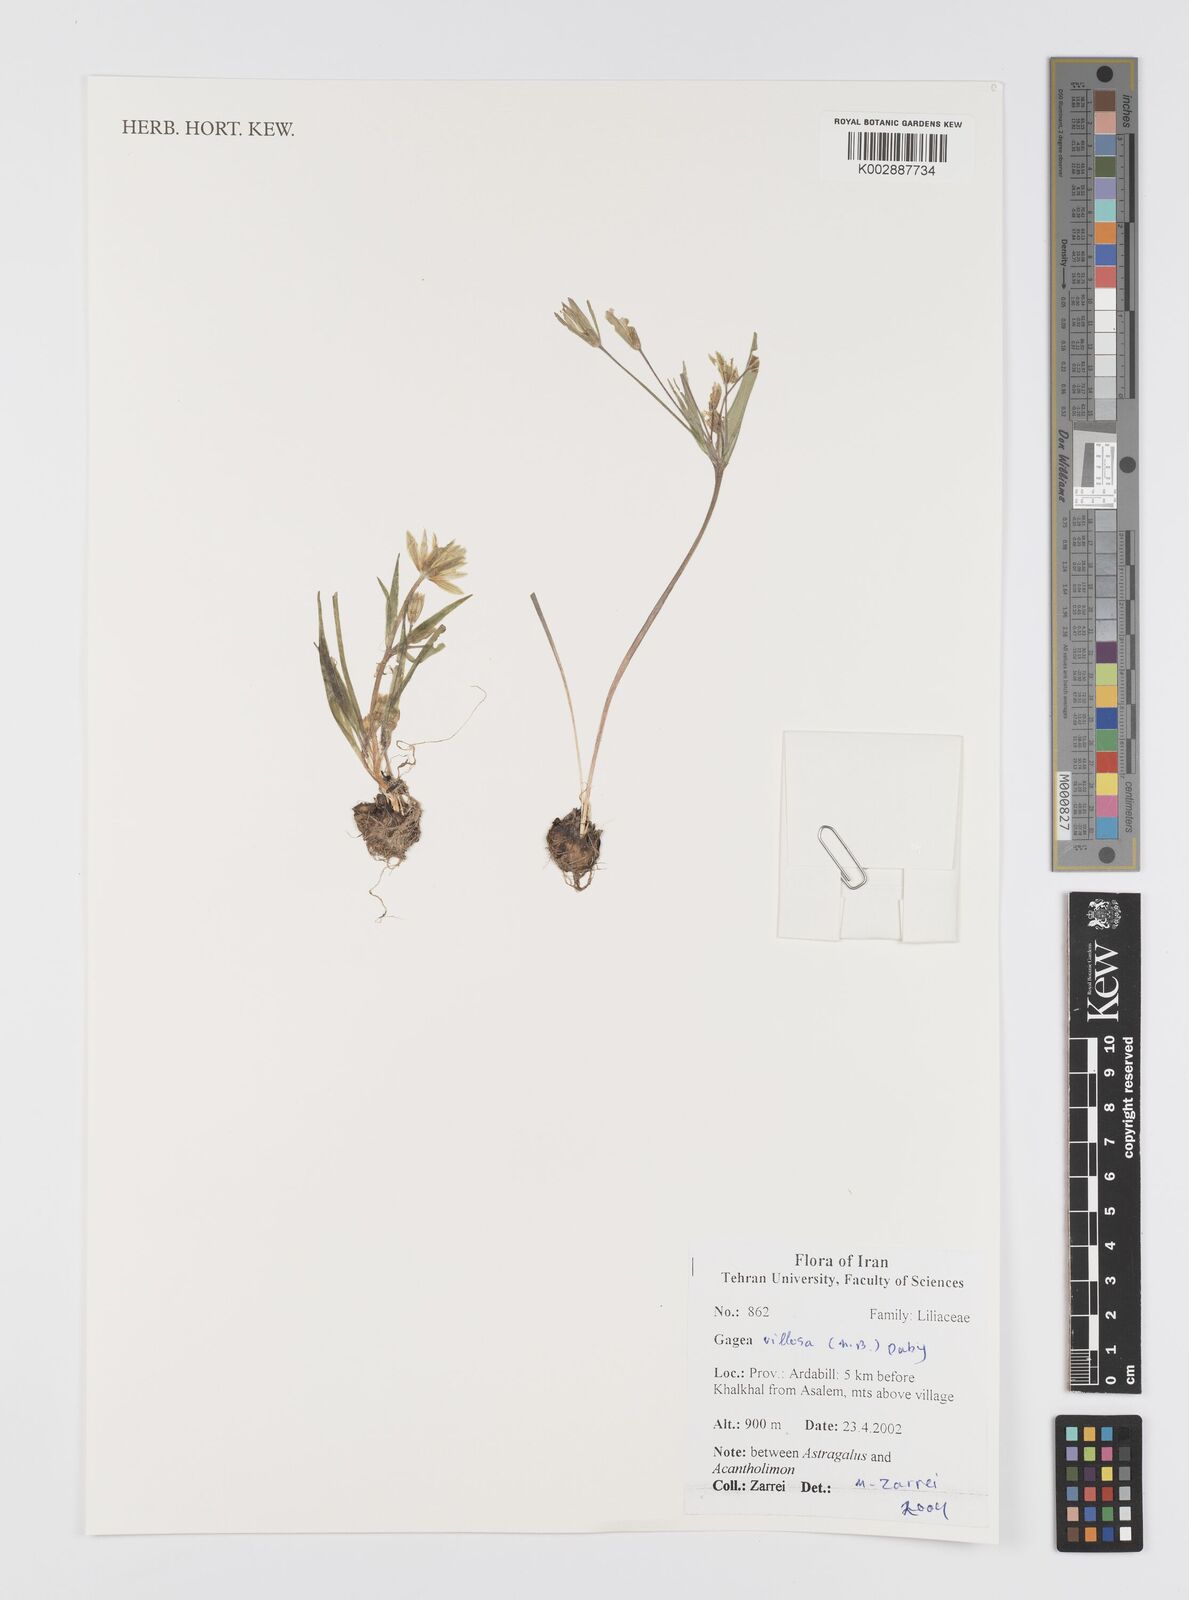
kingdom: Plantae
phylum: Tracheophyta
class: Liliopsida
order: Liliales
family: Liliaceae
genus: Gagea
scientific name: Gagea villosa
